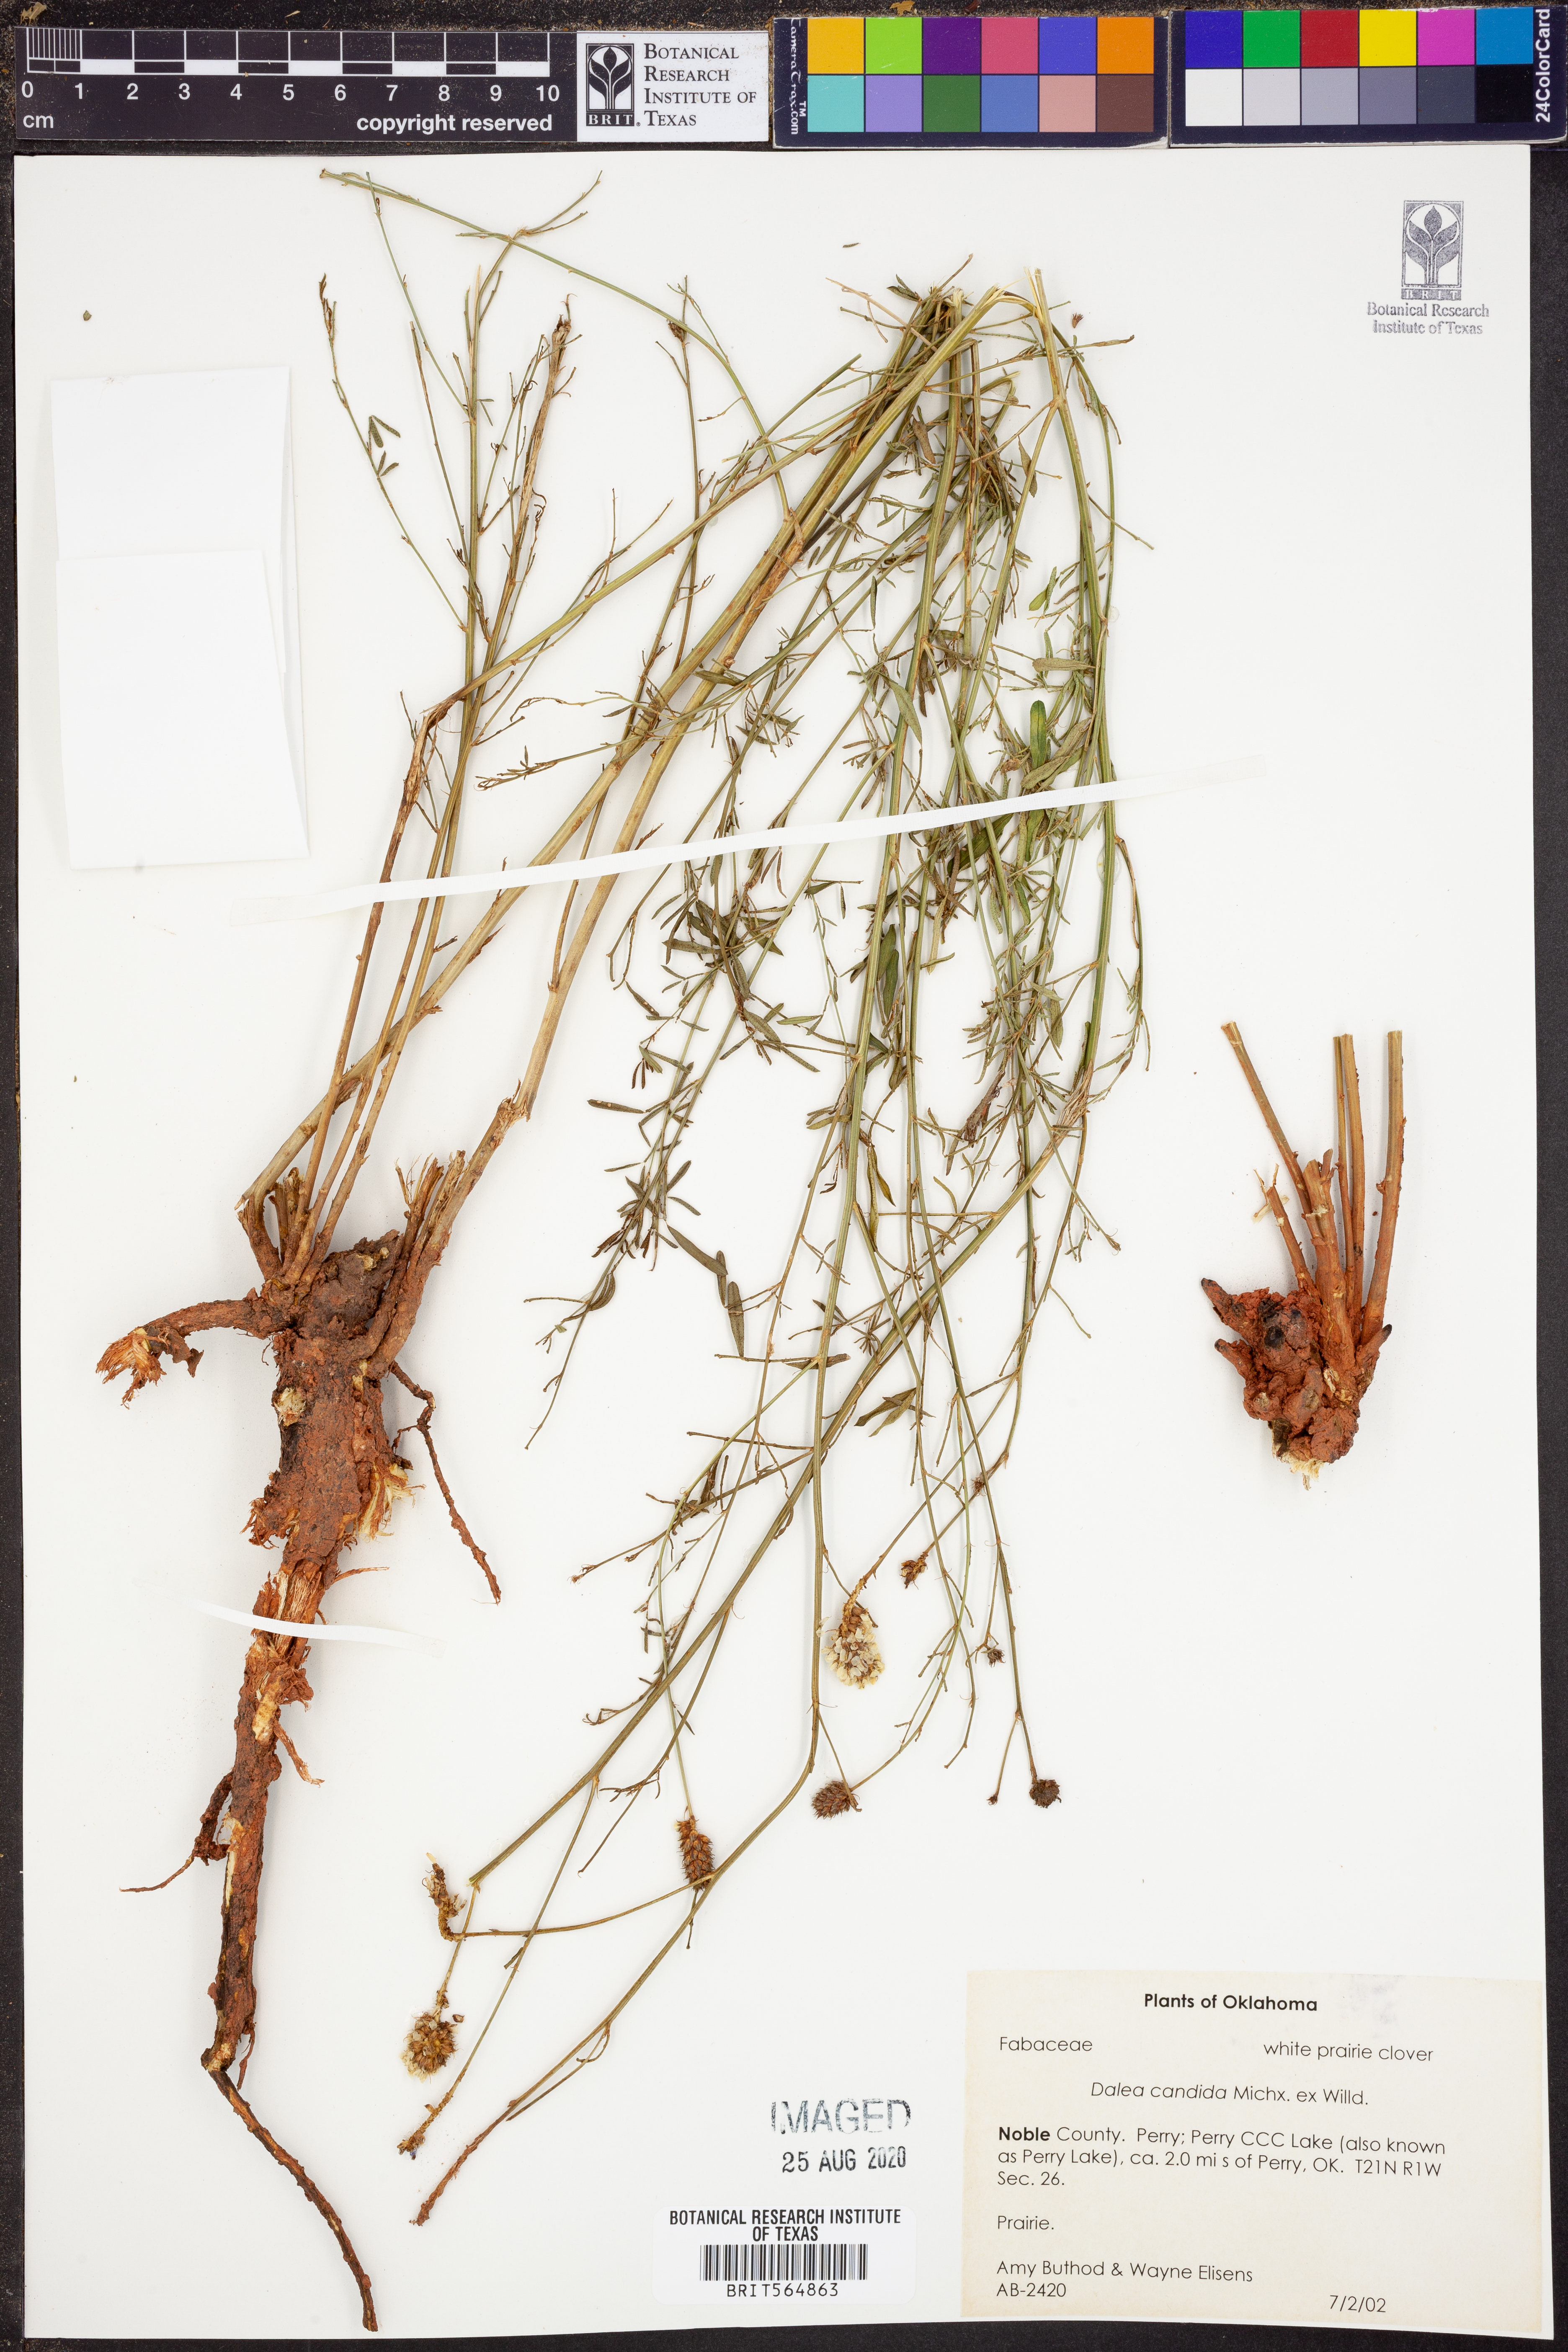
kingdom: Plantae
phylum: Tracheophyta
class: Magnoliopsida
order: Fabales
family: Fabaceae
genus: Dalea
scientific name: Dalea candida
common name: White prairie-clover
